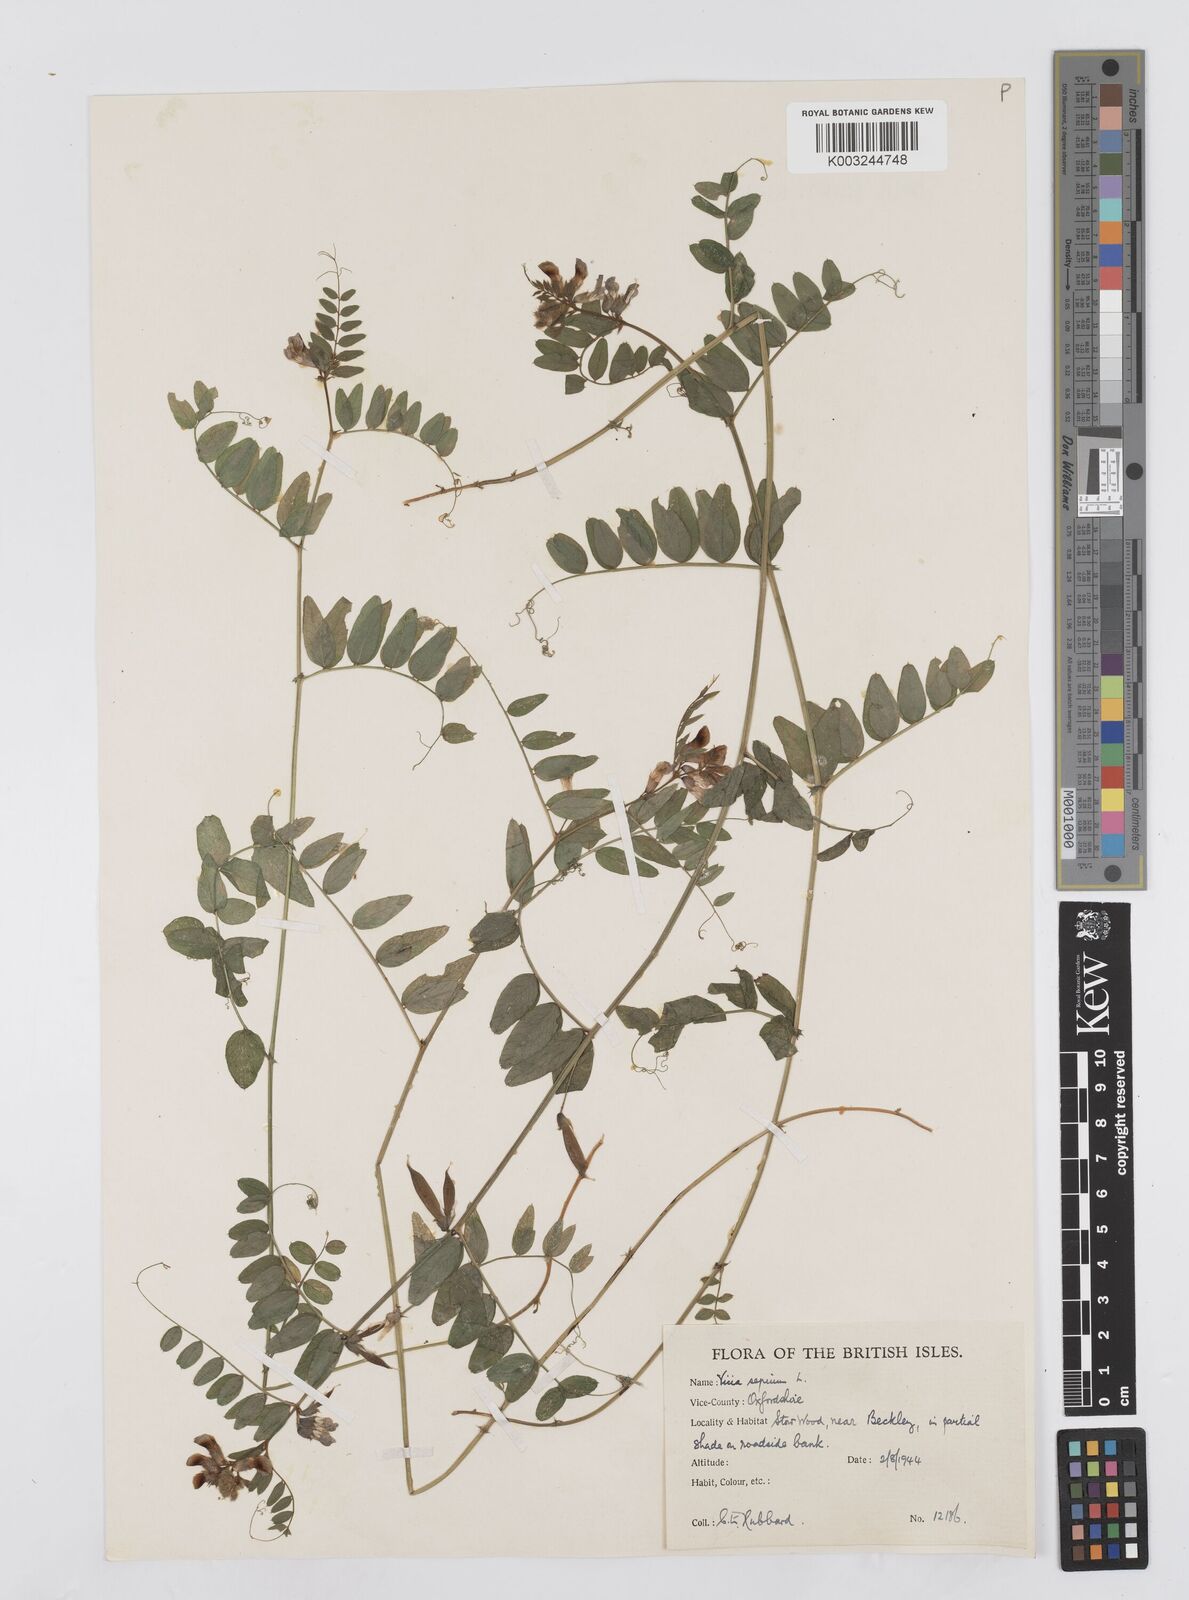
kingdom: Plantae
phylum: Tracheophyta
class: Magnoliopsida
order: Fabales
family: Fabaceae
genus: Vicia
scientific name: Vicia sepium
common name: Bush vetch
